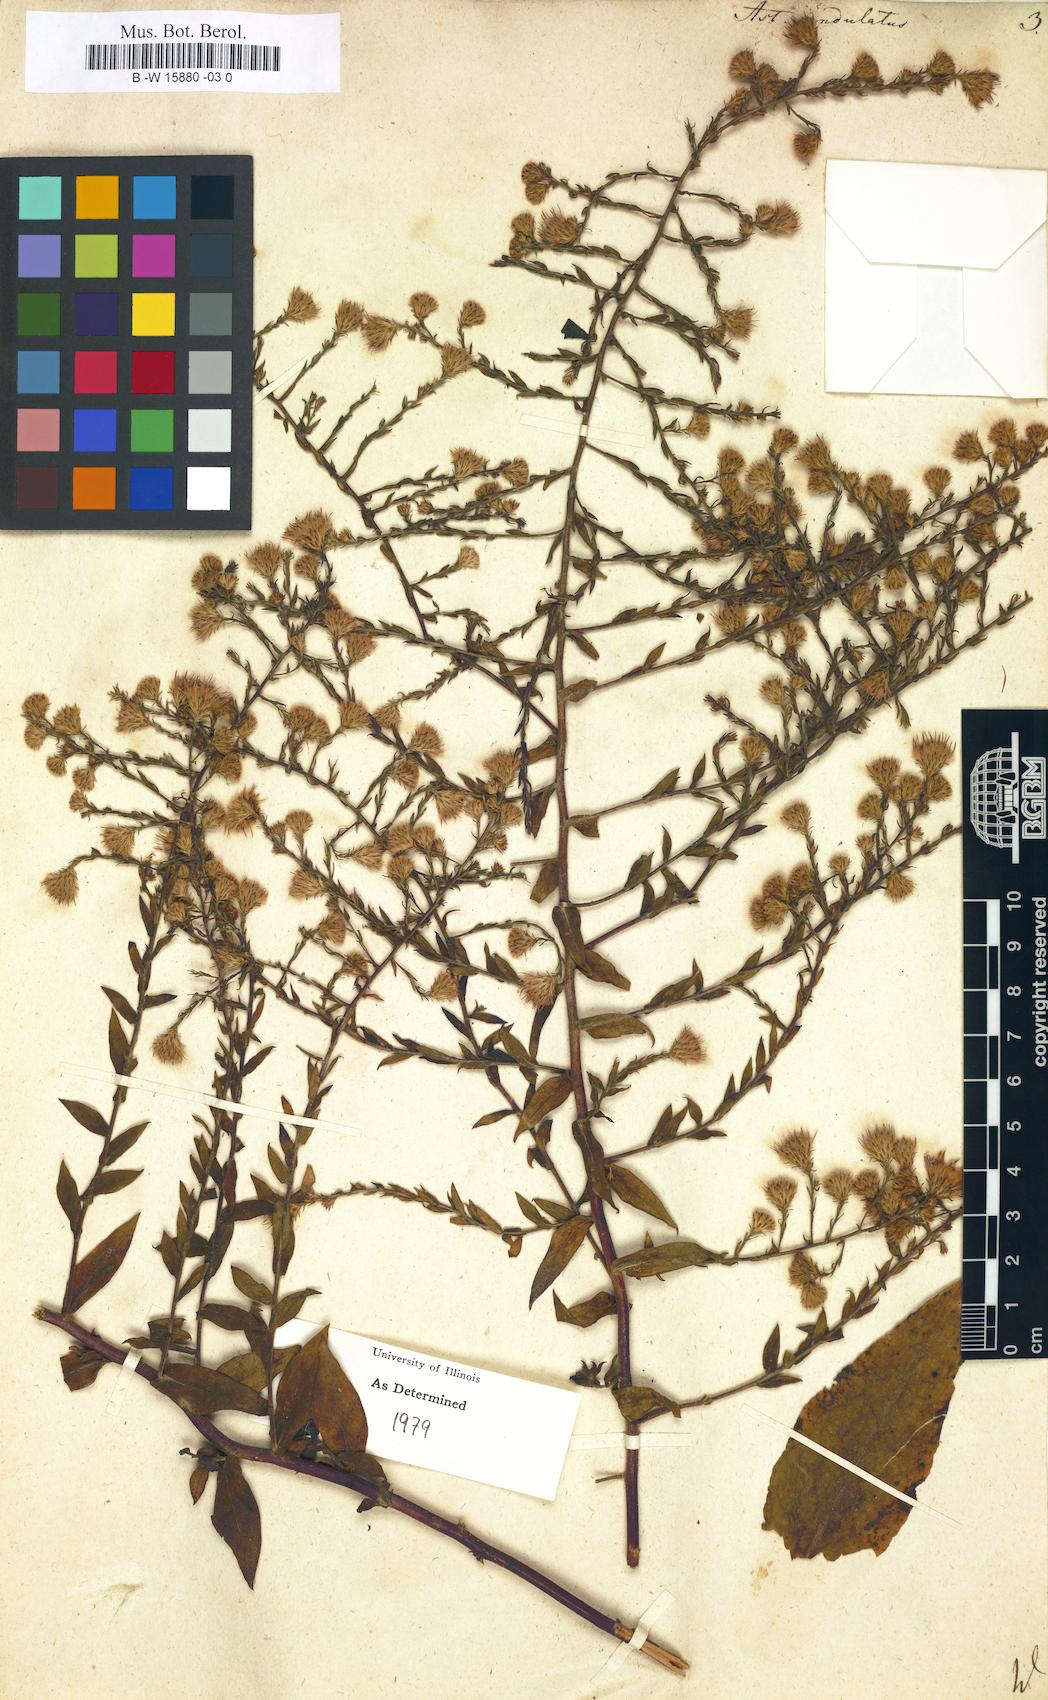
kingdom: Plantae
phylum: Tracheophyta
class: Magnoliopsida
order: Asterales
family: Asteraceae
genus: Symphyotrichum
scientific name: Symphyotrichum undulatum
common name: Clasping heart-leaf aster
